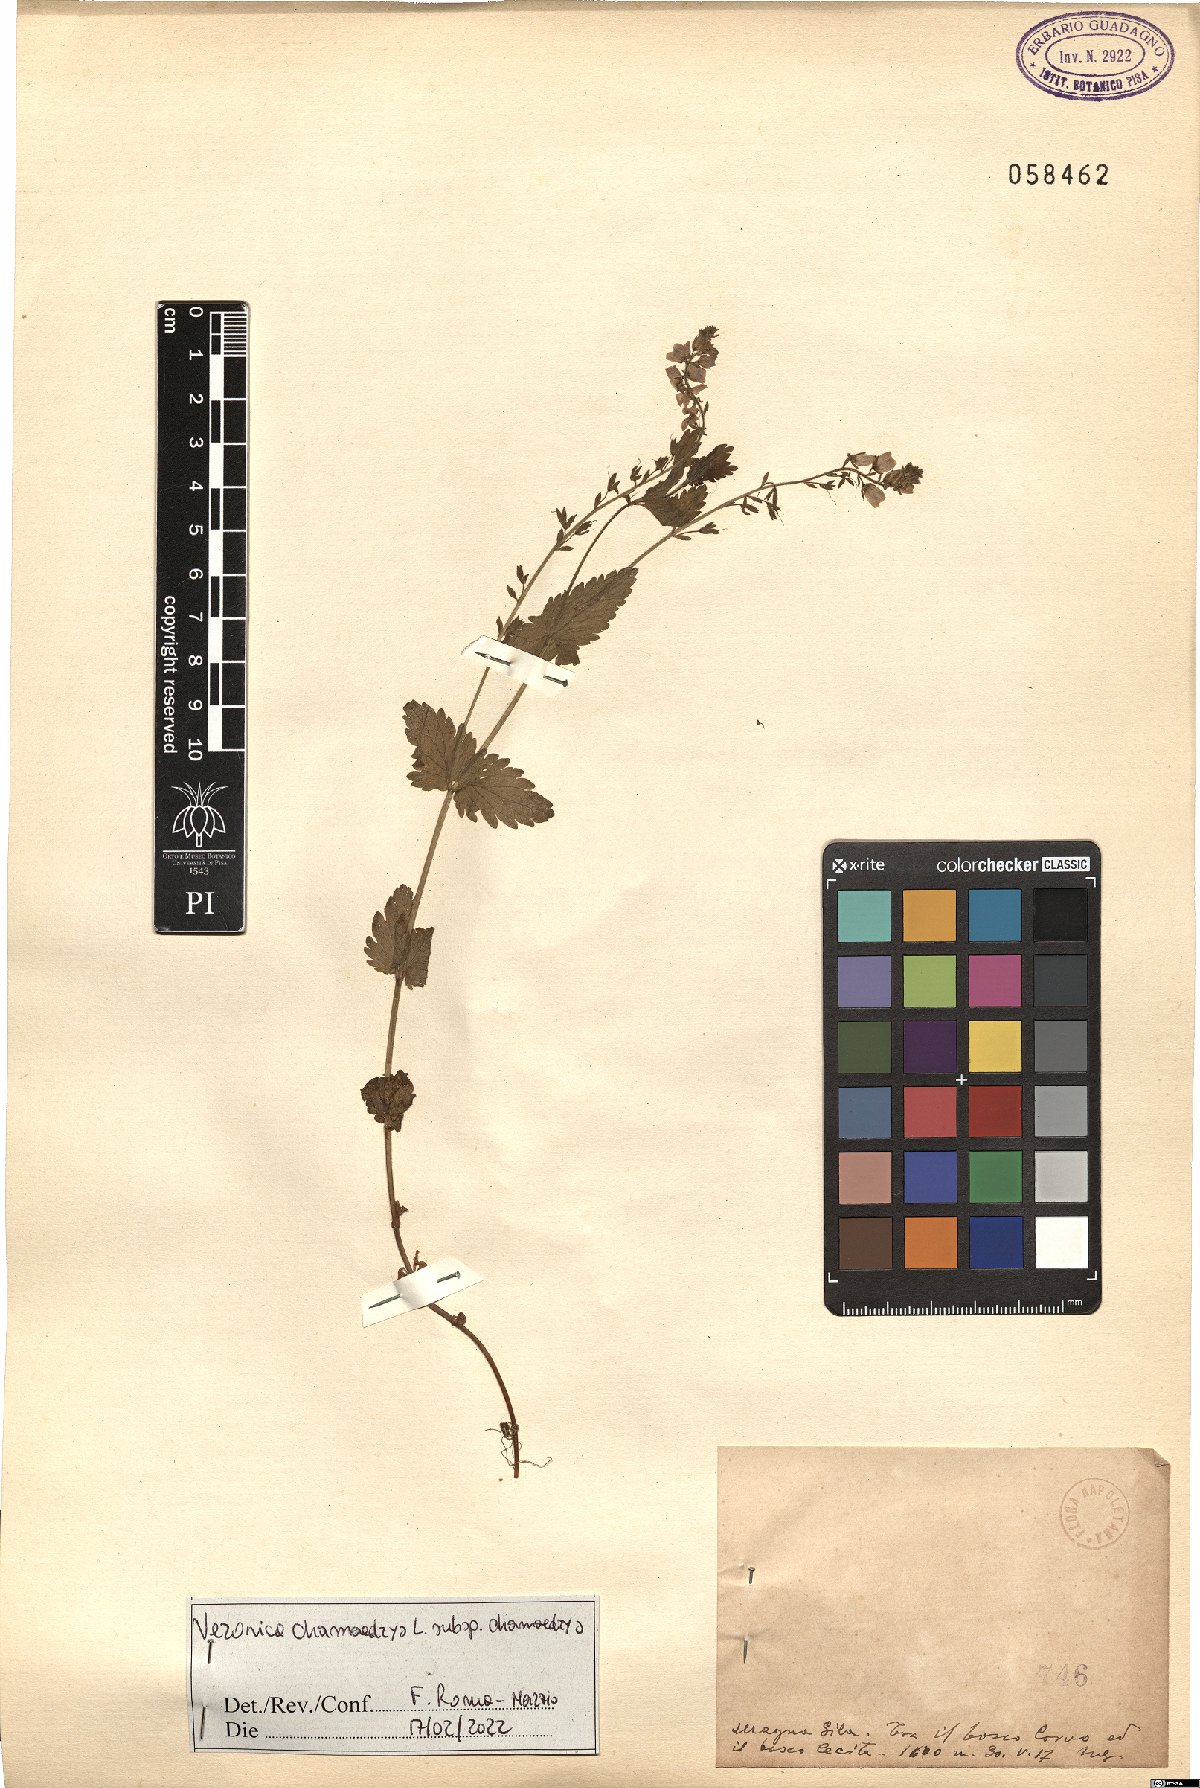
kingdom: Plantae
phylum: Tracheophyta
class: Magnoliopsida
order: Lamiales
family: Plantaginaceae
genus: Veronica
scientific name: Veronica chamaedrys
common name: Germander speedwell
